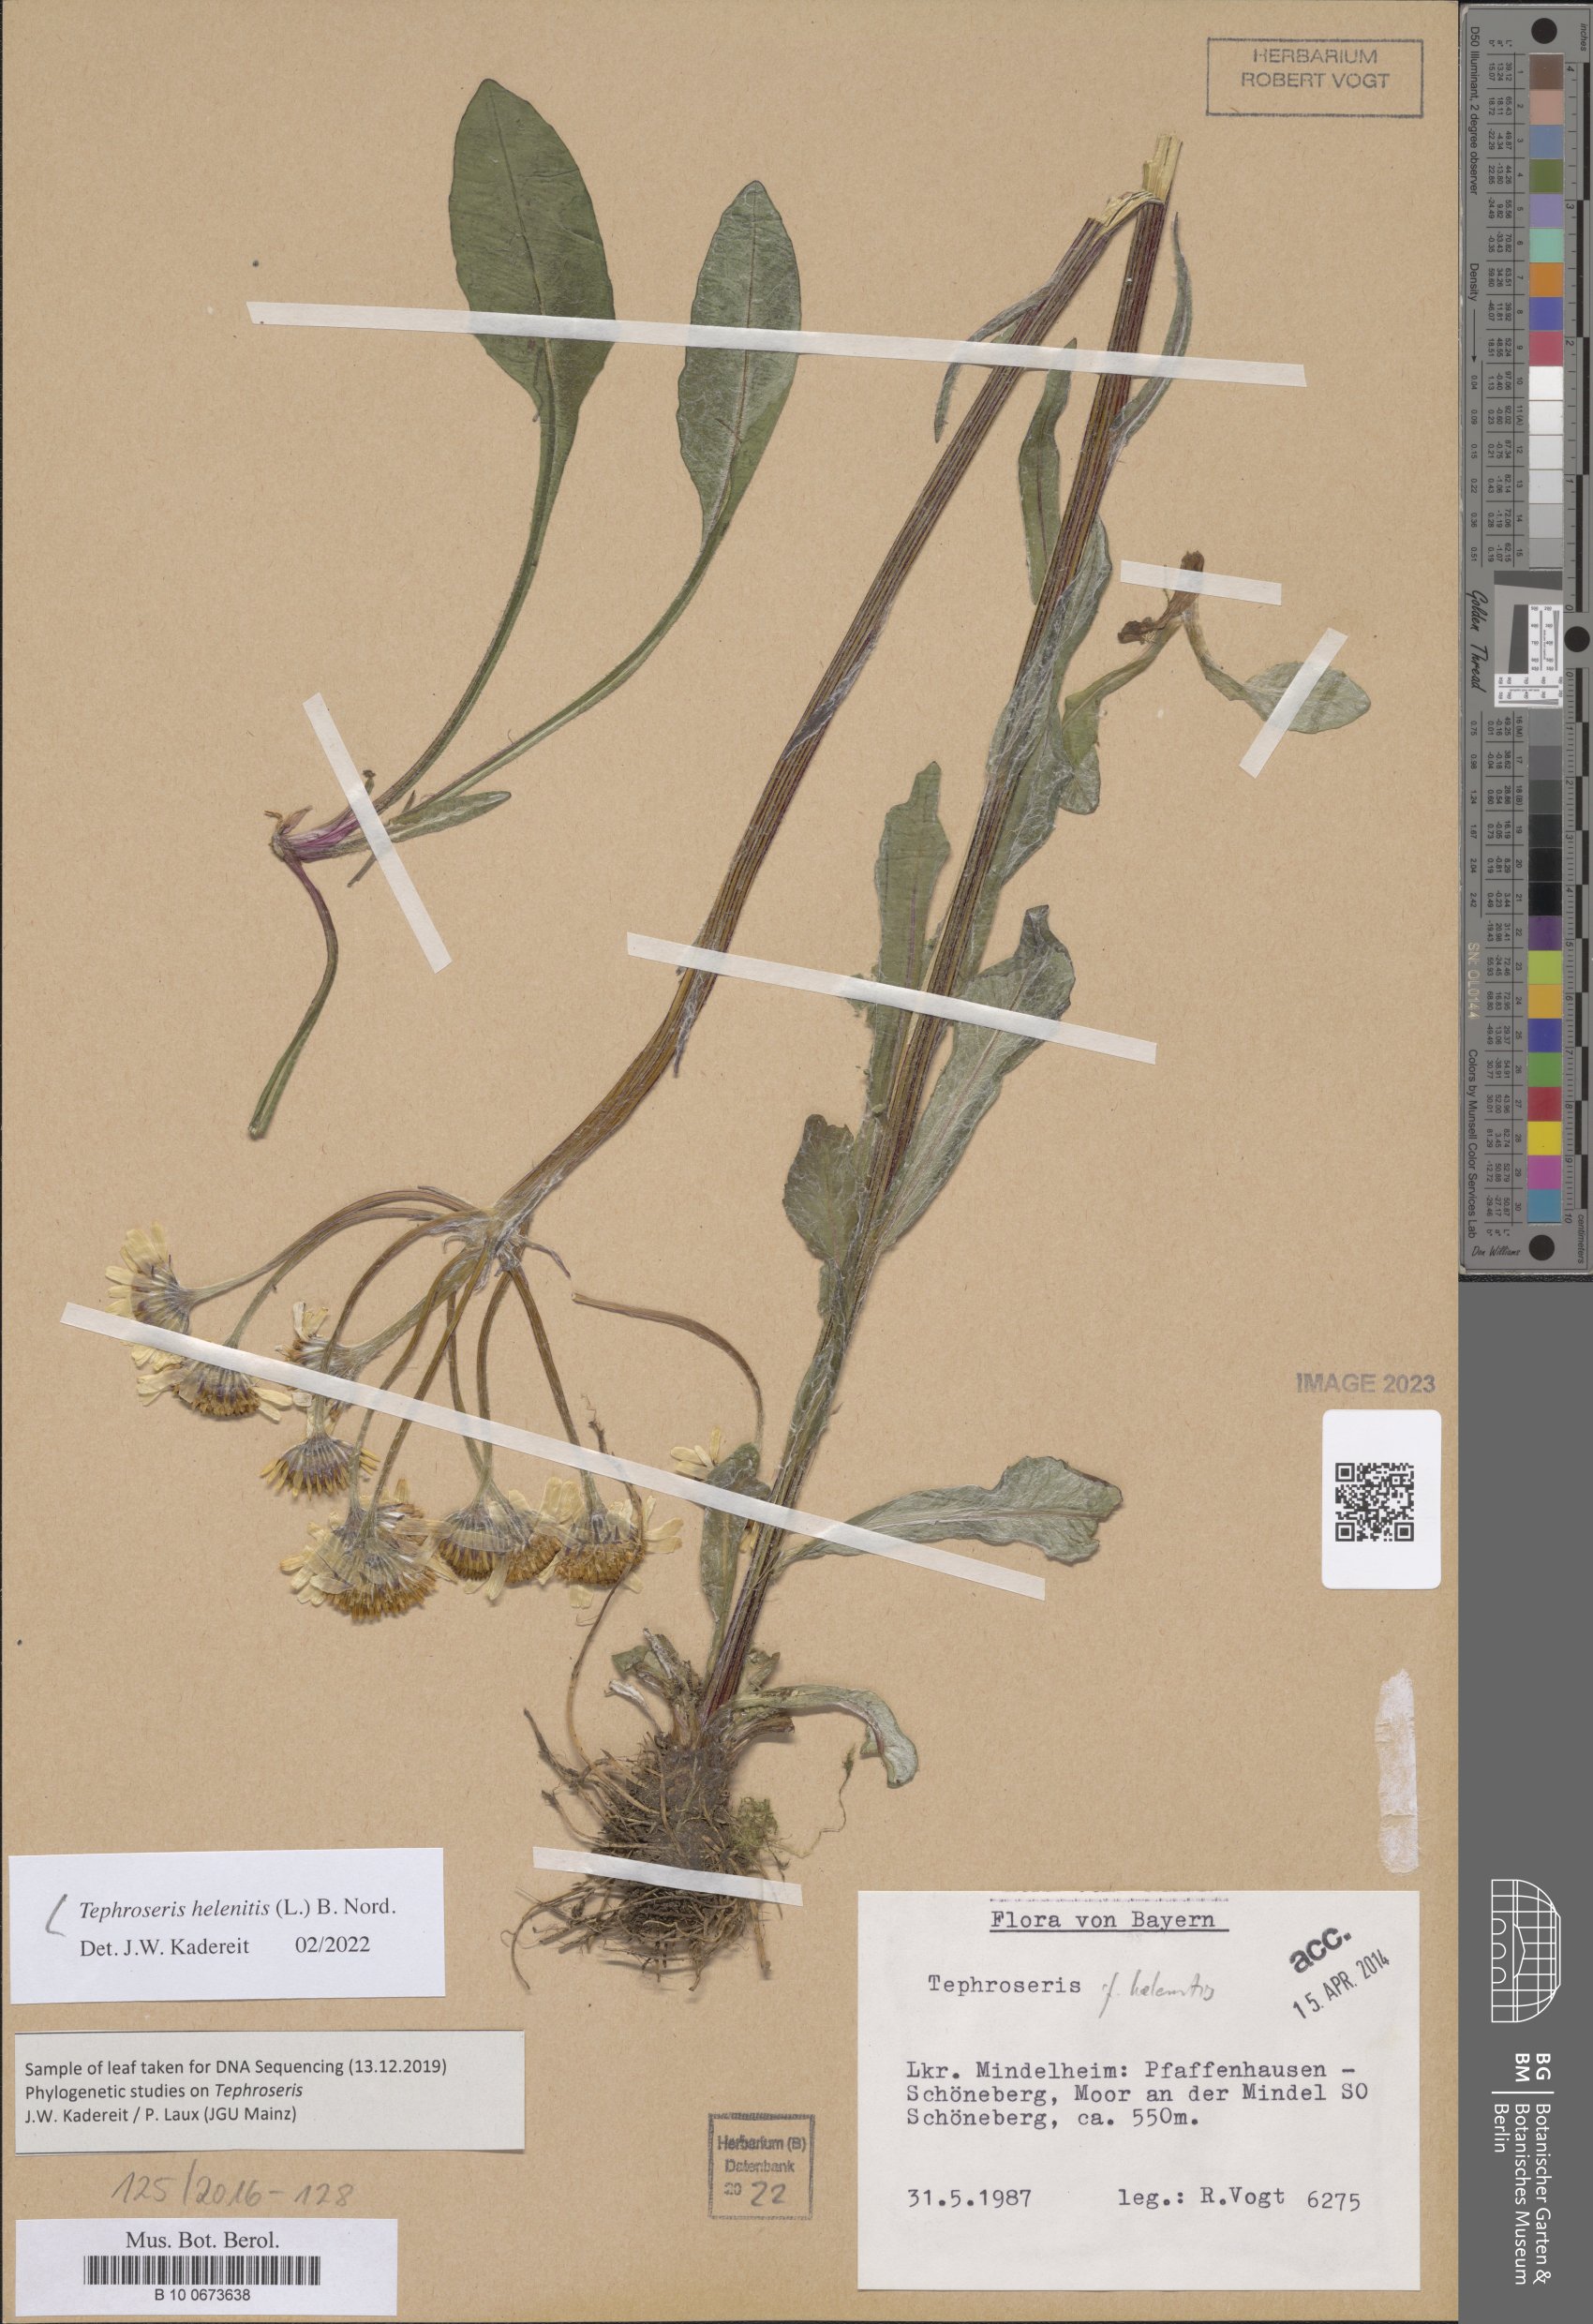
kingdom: Plantae
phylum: Tracheophyta
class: Magnoliopsida
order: Asterales
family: Asteraceae
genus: Tephroseris
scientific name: Tephroseris helenitis
